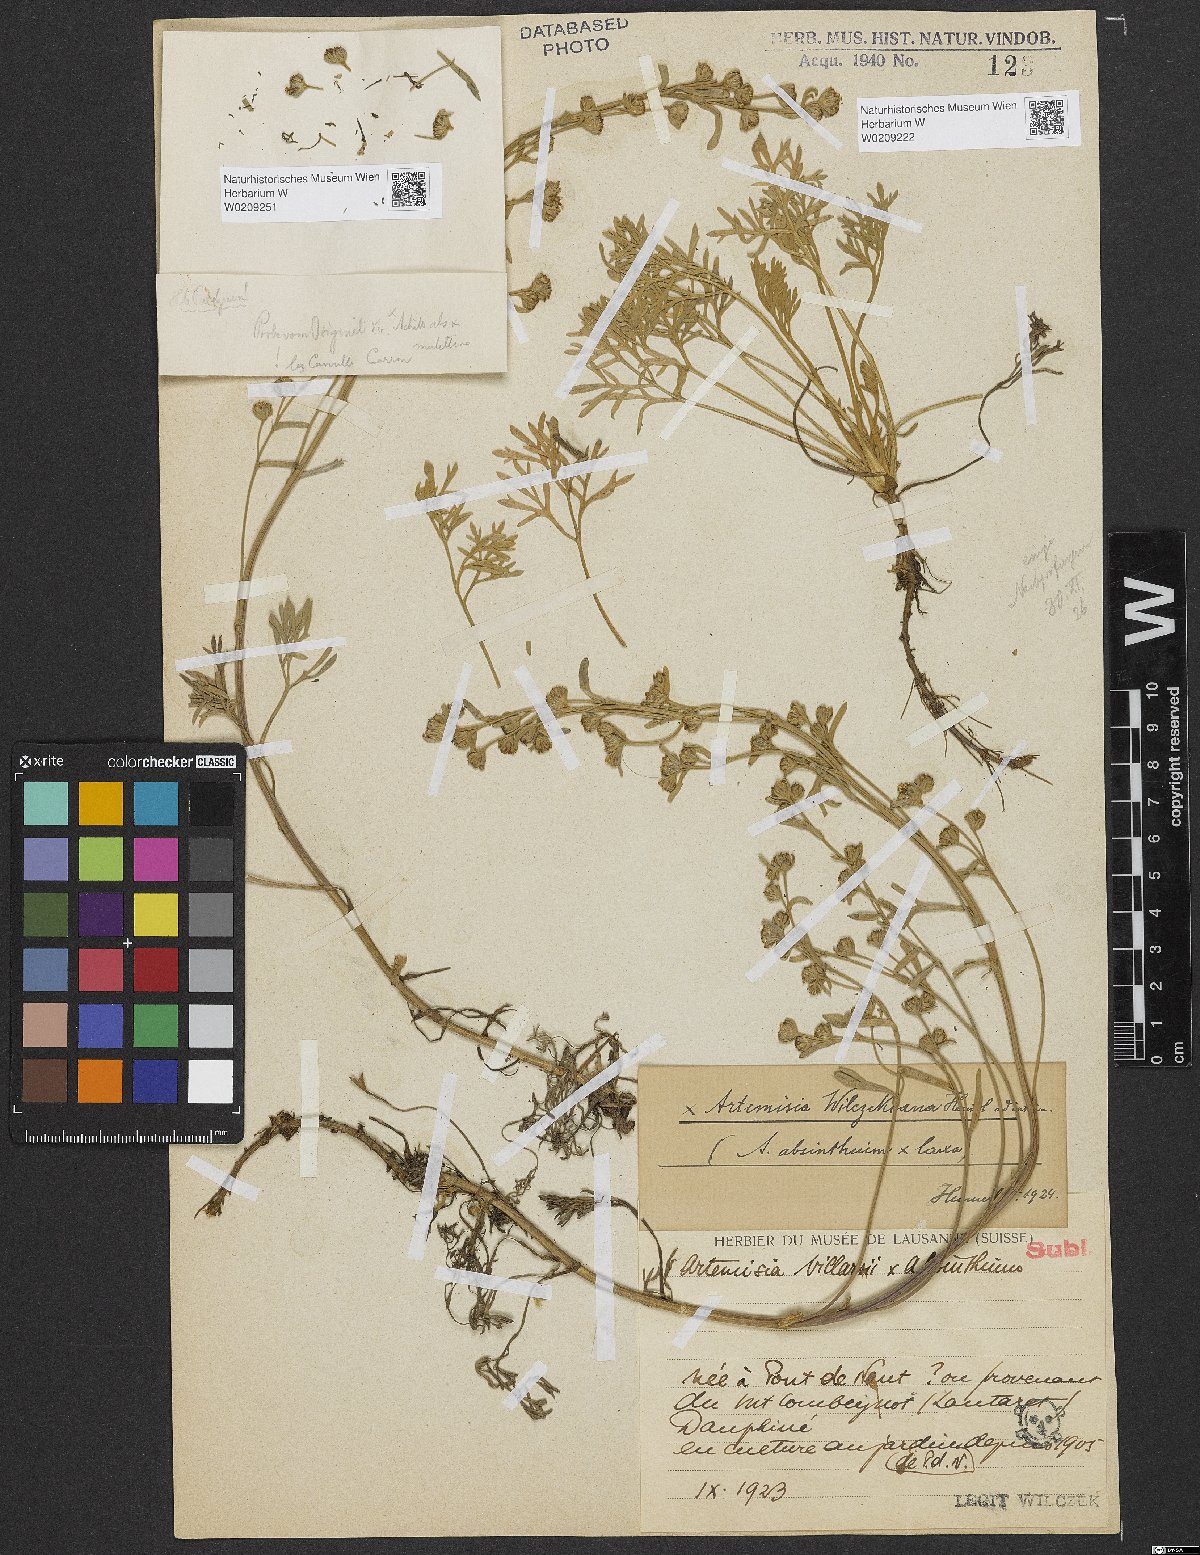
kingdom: Plantae
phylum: Tracheophyta
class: Magnoliopsida
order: Asterales
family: Asteraceae
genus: Artemisia
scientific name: Artemisia
